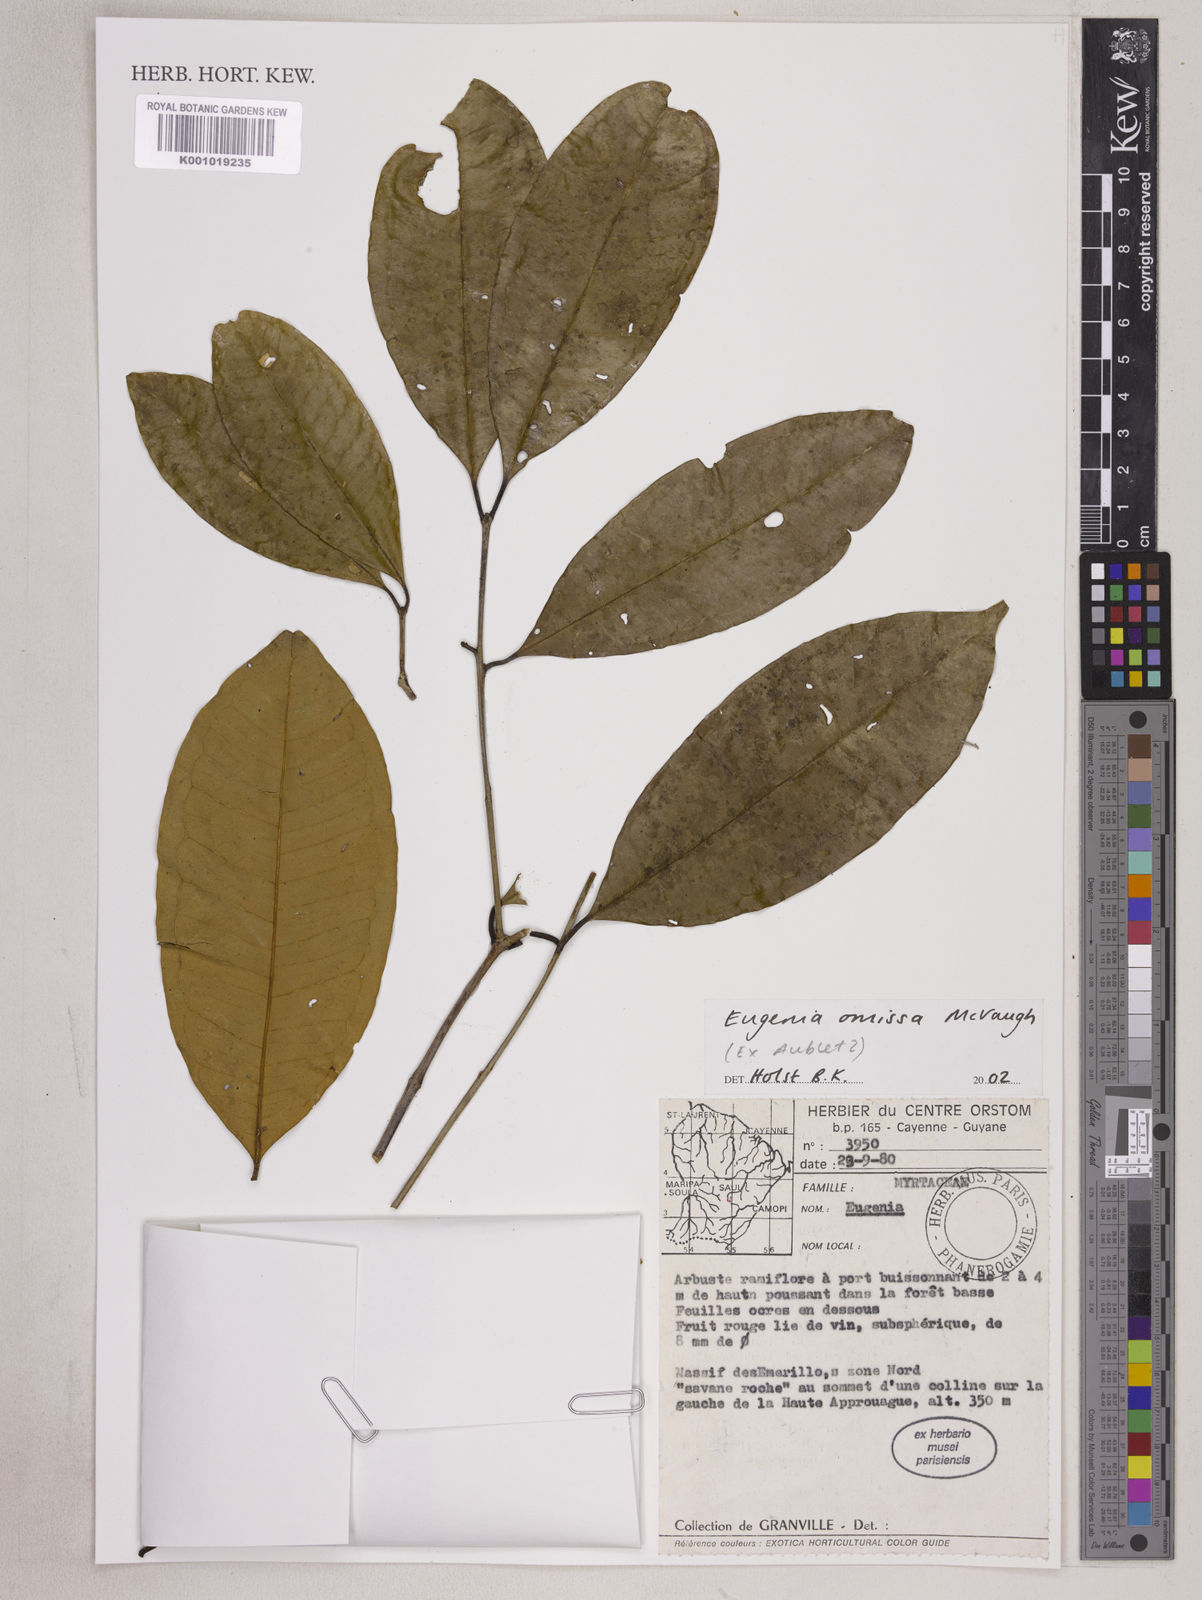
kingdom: Plantae
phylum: Tracheophyta
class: Magnoliopsida
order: Myrtales
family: Myrtaceae
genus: Eugenia
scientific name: Eugenia omissa
